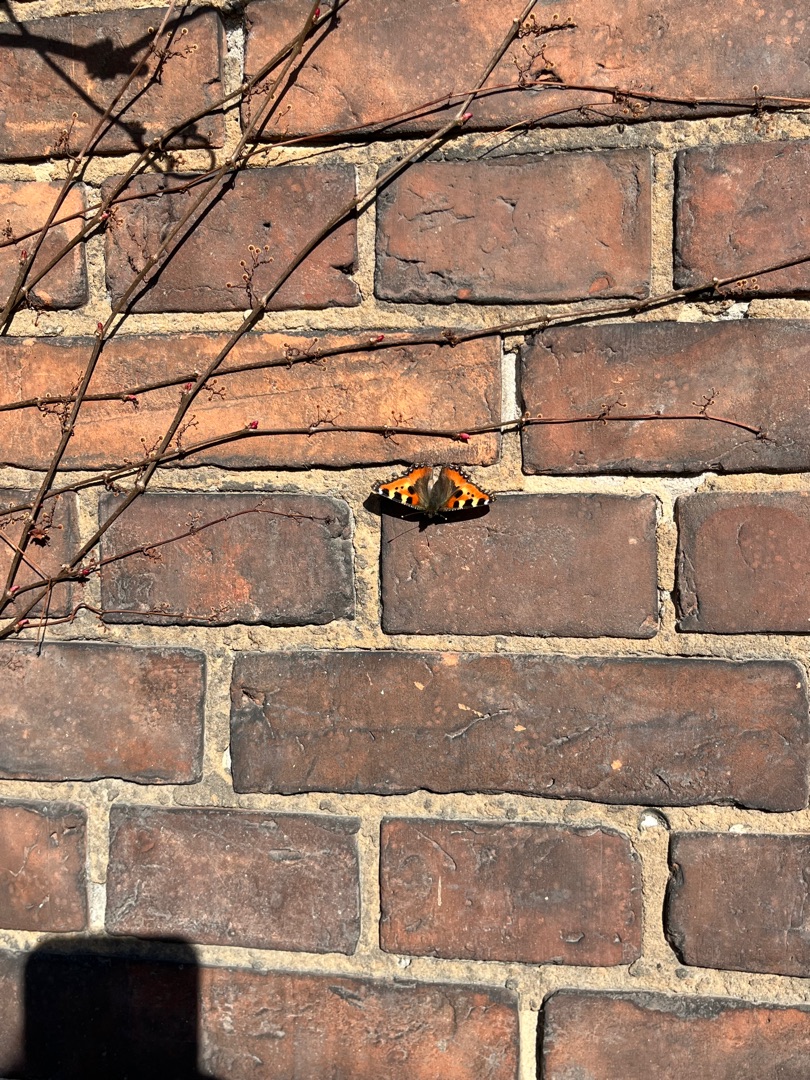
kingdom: Animalia
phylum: Arthropoda
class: Insecta
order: Lepidoptera
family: Nymphalidae
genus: Aglais
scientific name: Aglais urticae
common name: Nældens takvinge
